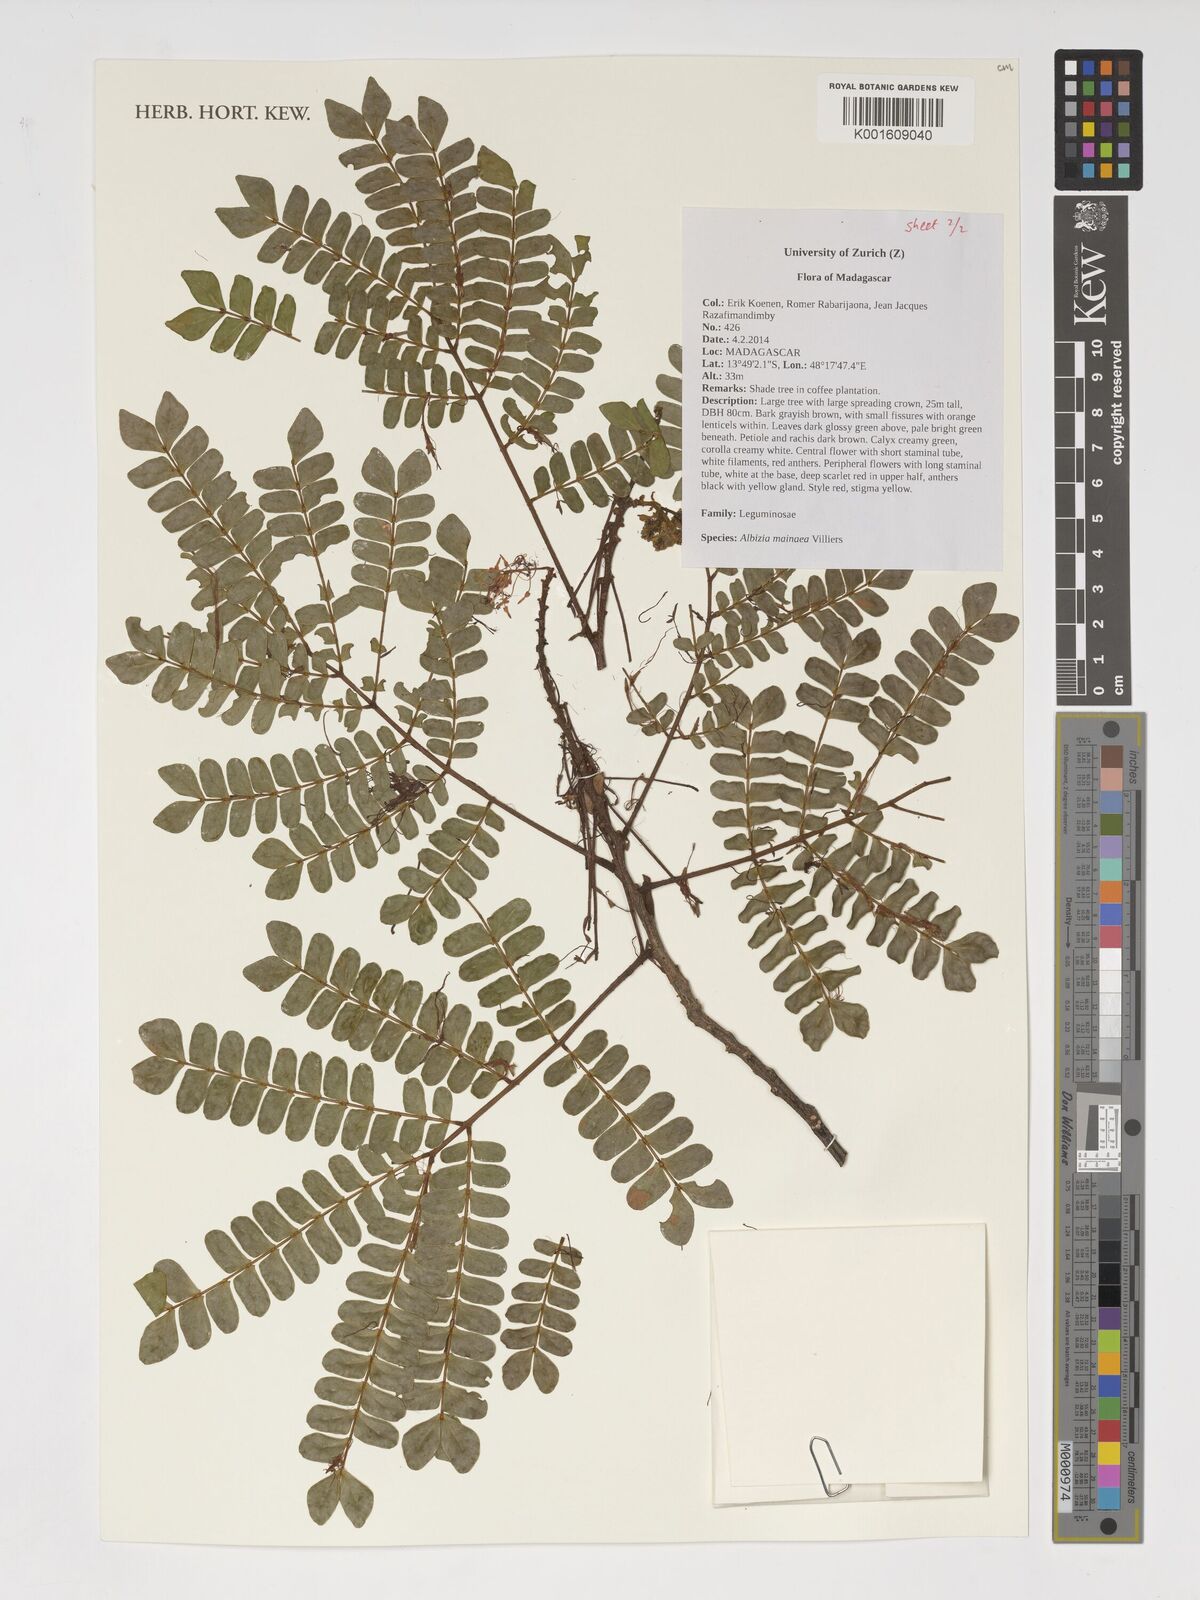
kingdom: Plantae
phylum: Tracheophyta
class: Magnoliopsida
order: Fabales
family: Fabaceae
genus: Albizia
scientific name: Albizia mainaea
